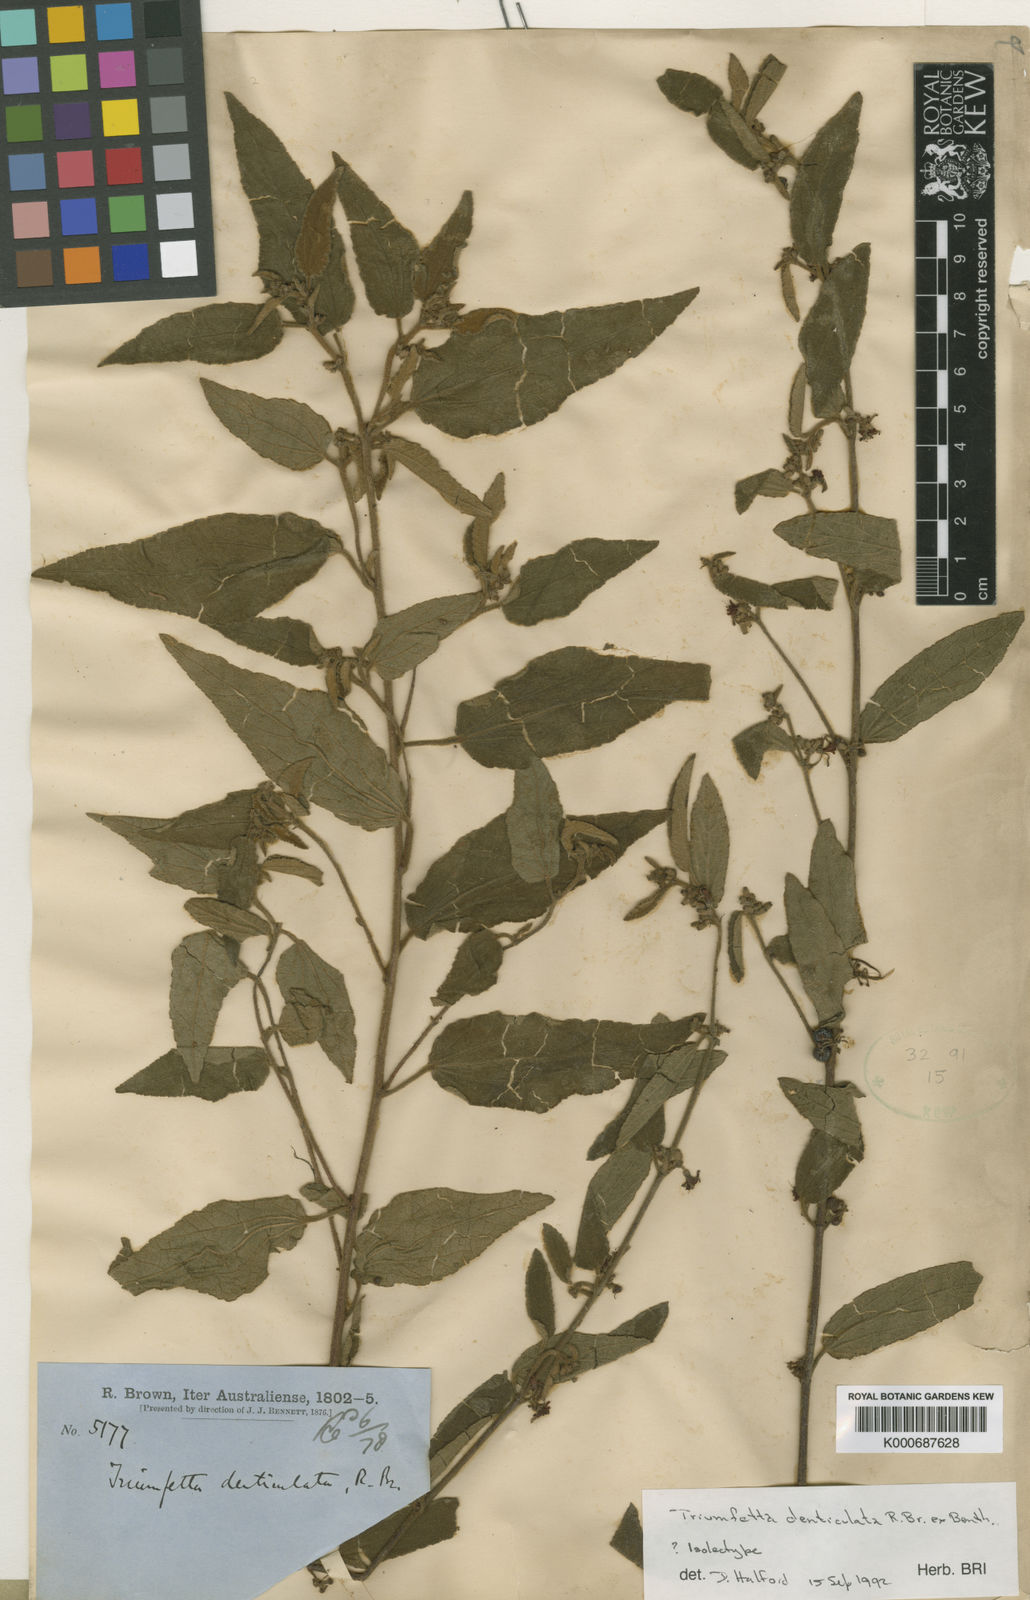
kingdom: Plantae
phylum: Tracheophyta
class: Magnoliopsida
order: Malvales
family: Malvaceae
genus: Triumfetta
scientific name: Triumfetta denticulata
